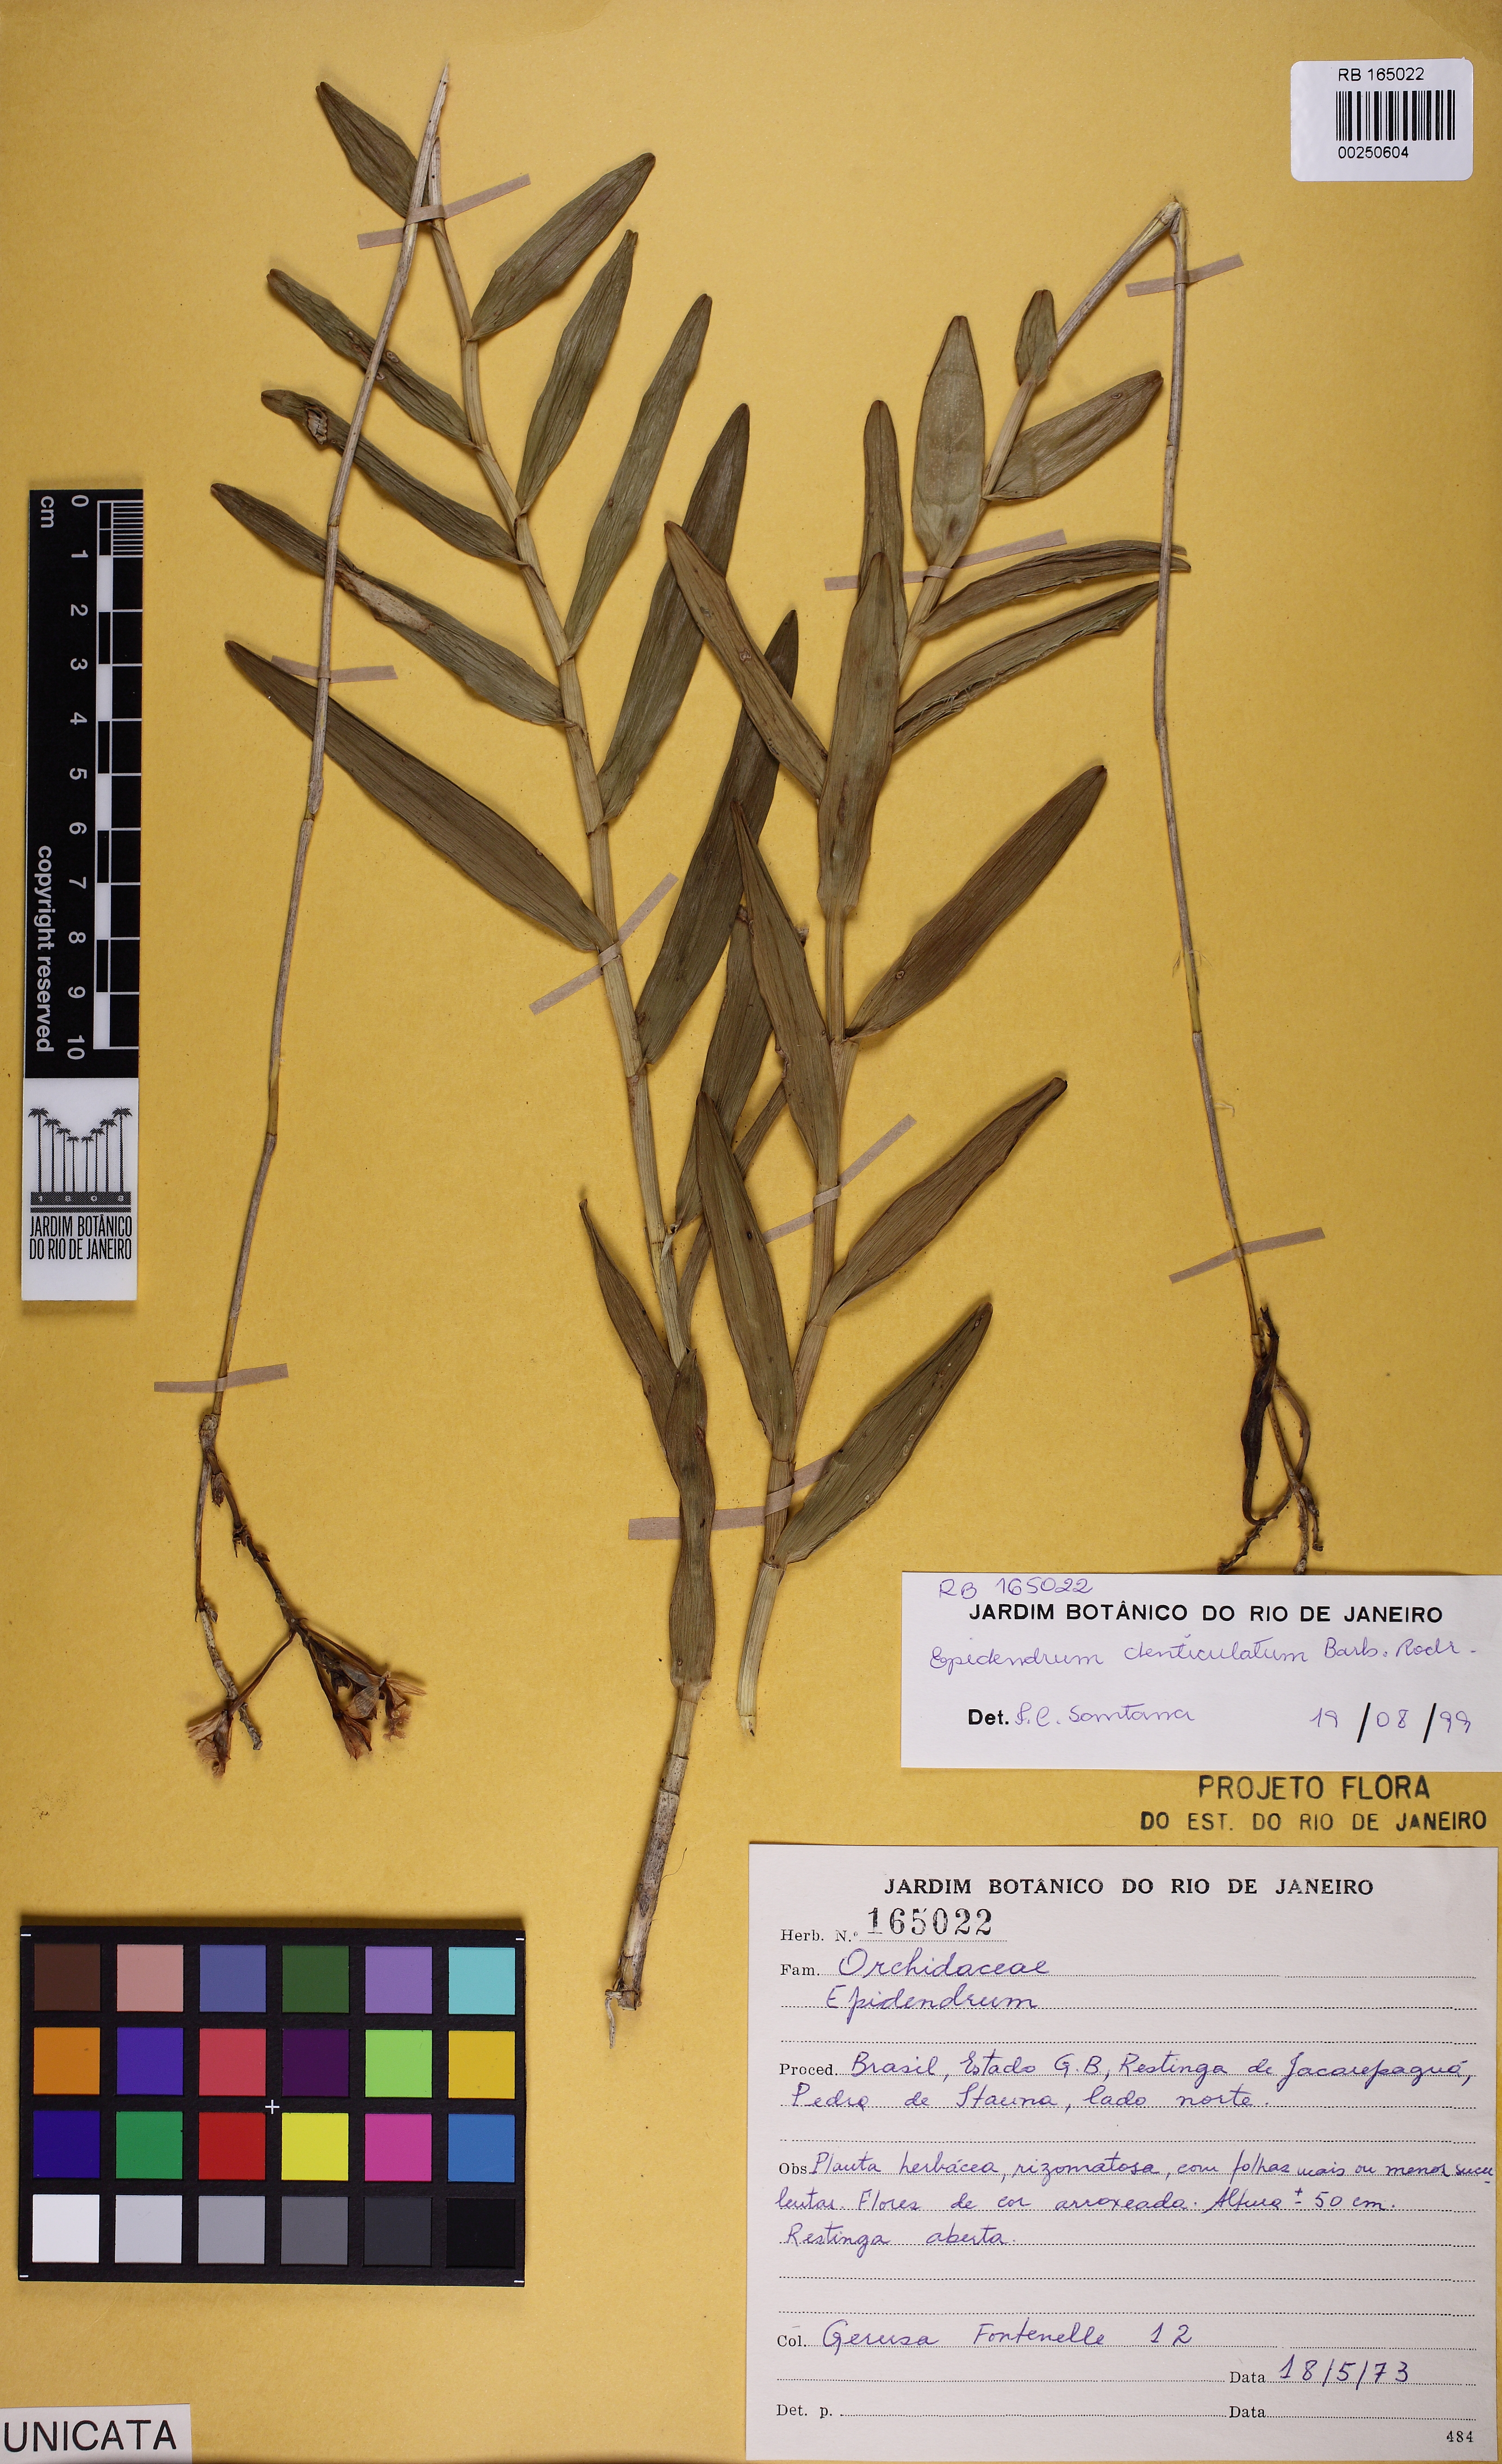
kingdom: Plantae
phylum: Tracheophyta
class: Liliopsida
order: Asparagales
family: Orchidaceae
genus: Epidendrum
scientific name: Epidendrum denticulatum
